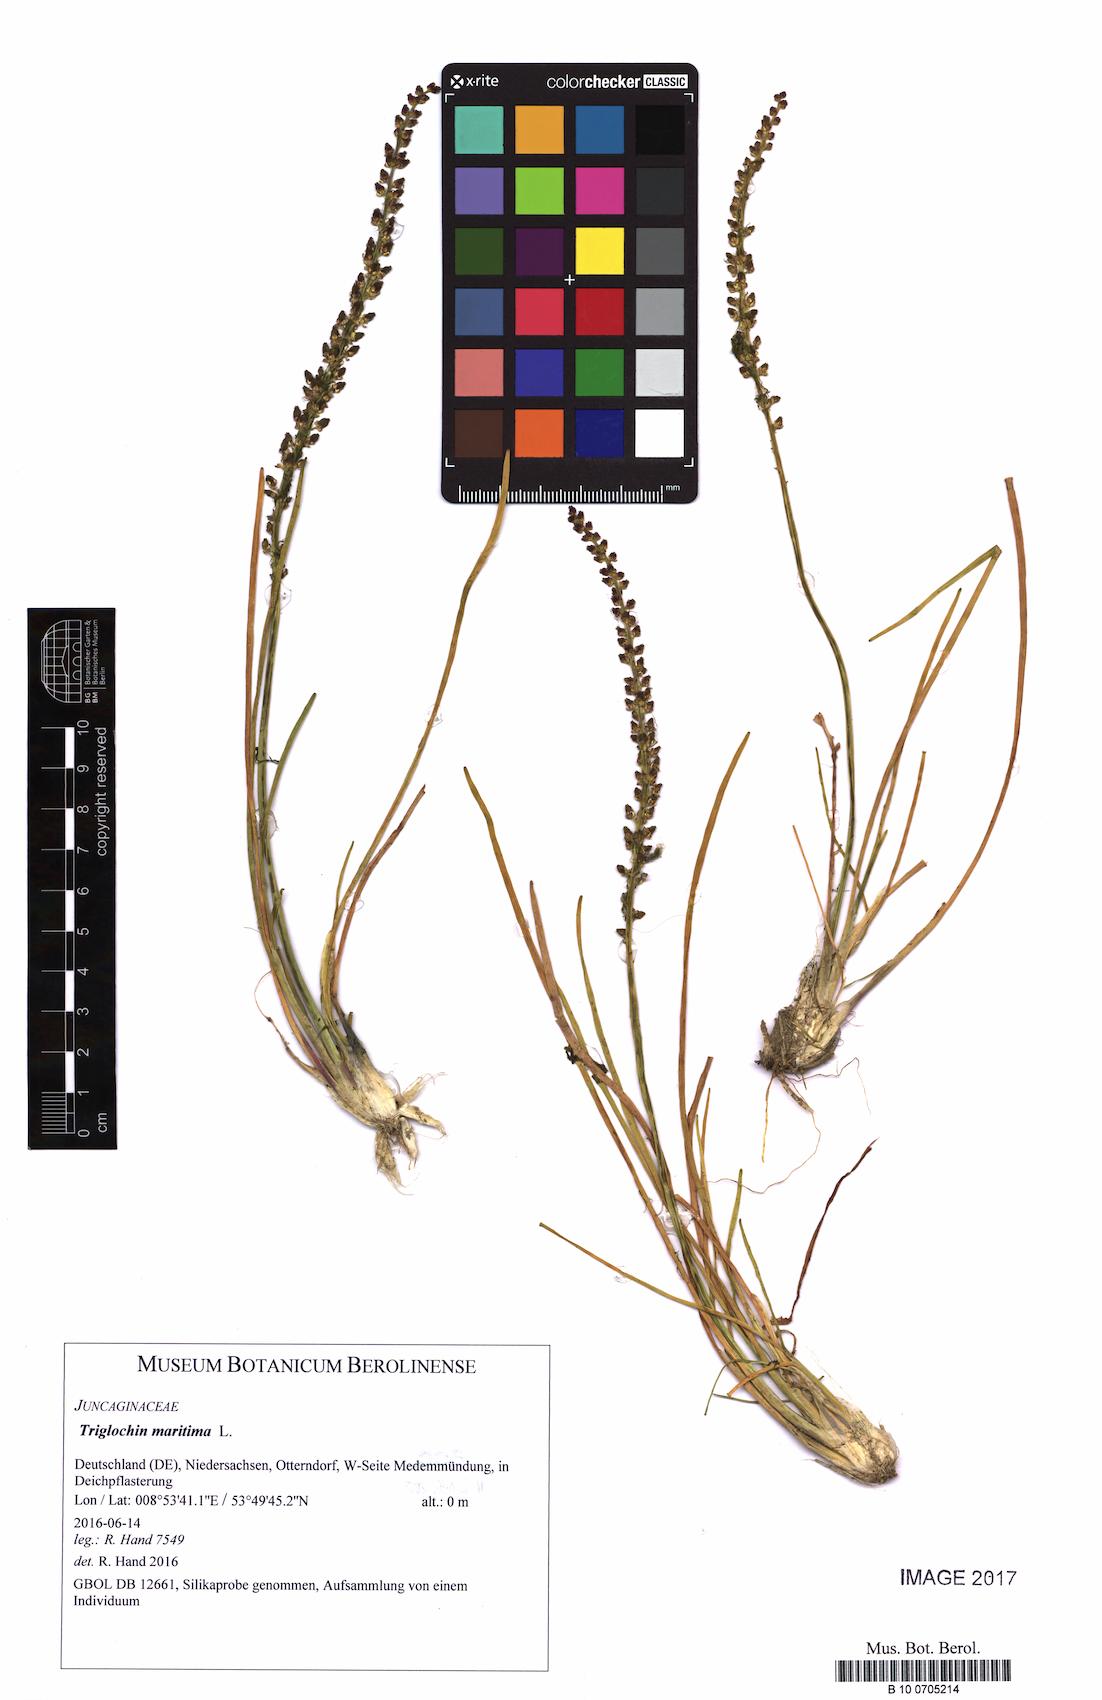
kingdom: Plantae
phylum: Tracheophyta
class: Liliopsida
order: Alismatales
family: Juncaginaceae
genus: Triglochin
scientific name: Triglochin maritima
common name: Sea arrowgrass
